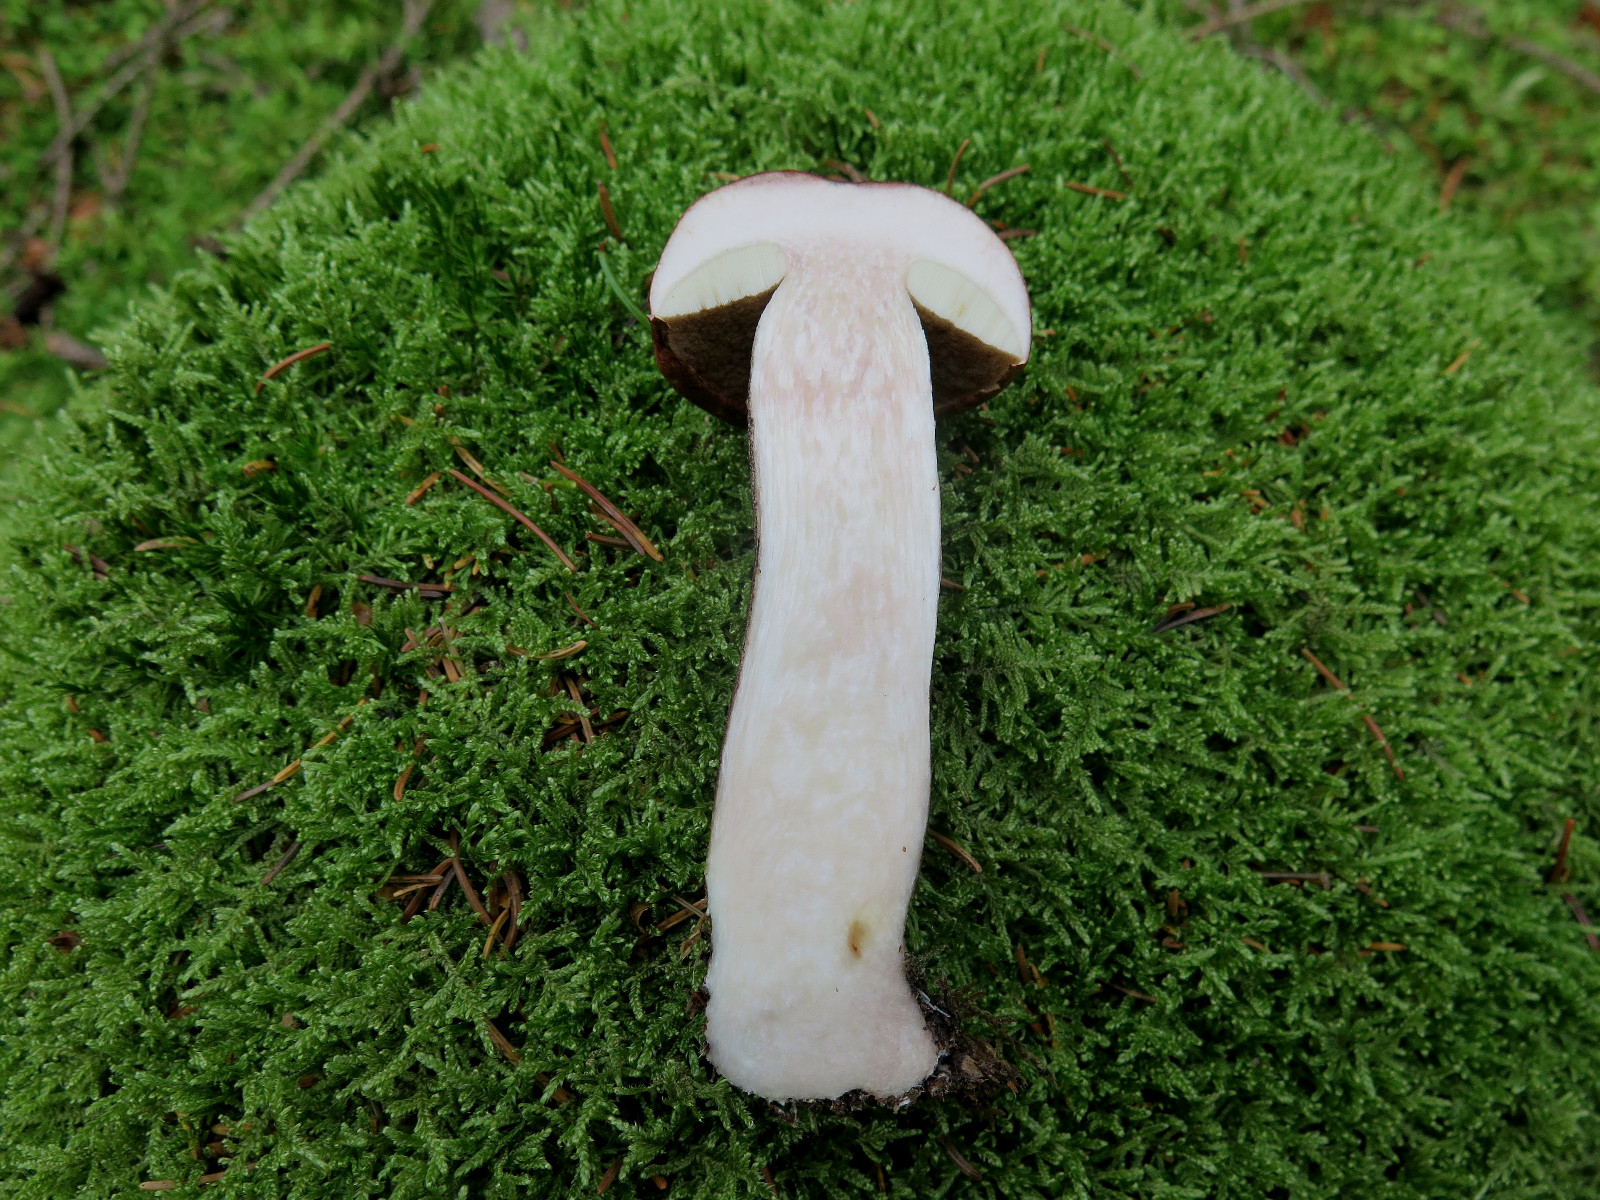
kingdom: Fungi
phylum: Basidiomycota
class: Agaricomycetes
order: Boletales
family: Boletaceae
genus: Leccinum
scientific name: Leccinum vulpinum
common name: fyrre-skælrørhat
